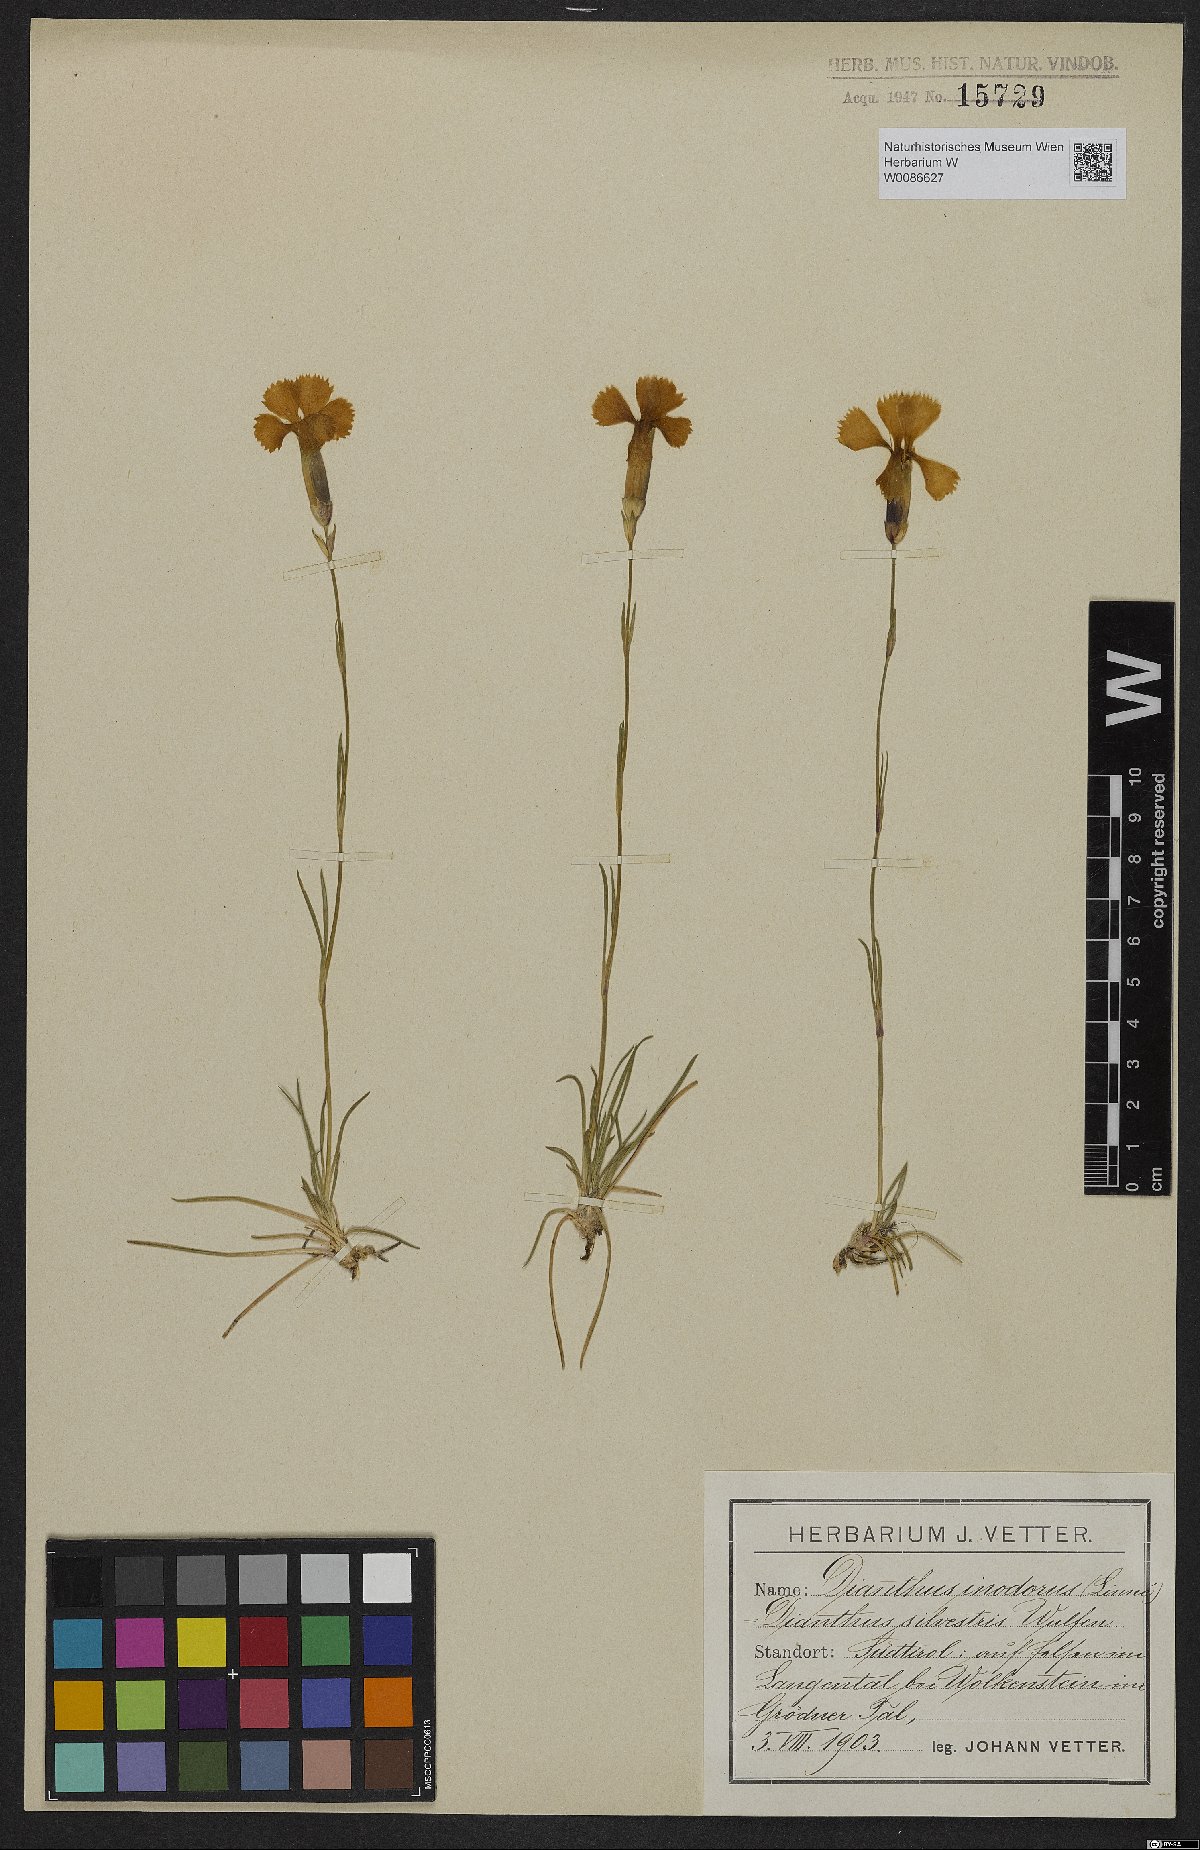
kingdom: Plantae
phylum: Tracheophyta
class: Magnoliopsida
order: Caryophyllales
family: Caryophyllaceae
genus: Dianthus
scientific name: Dianthus sylvestris
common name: Wood pink
